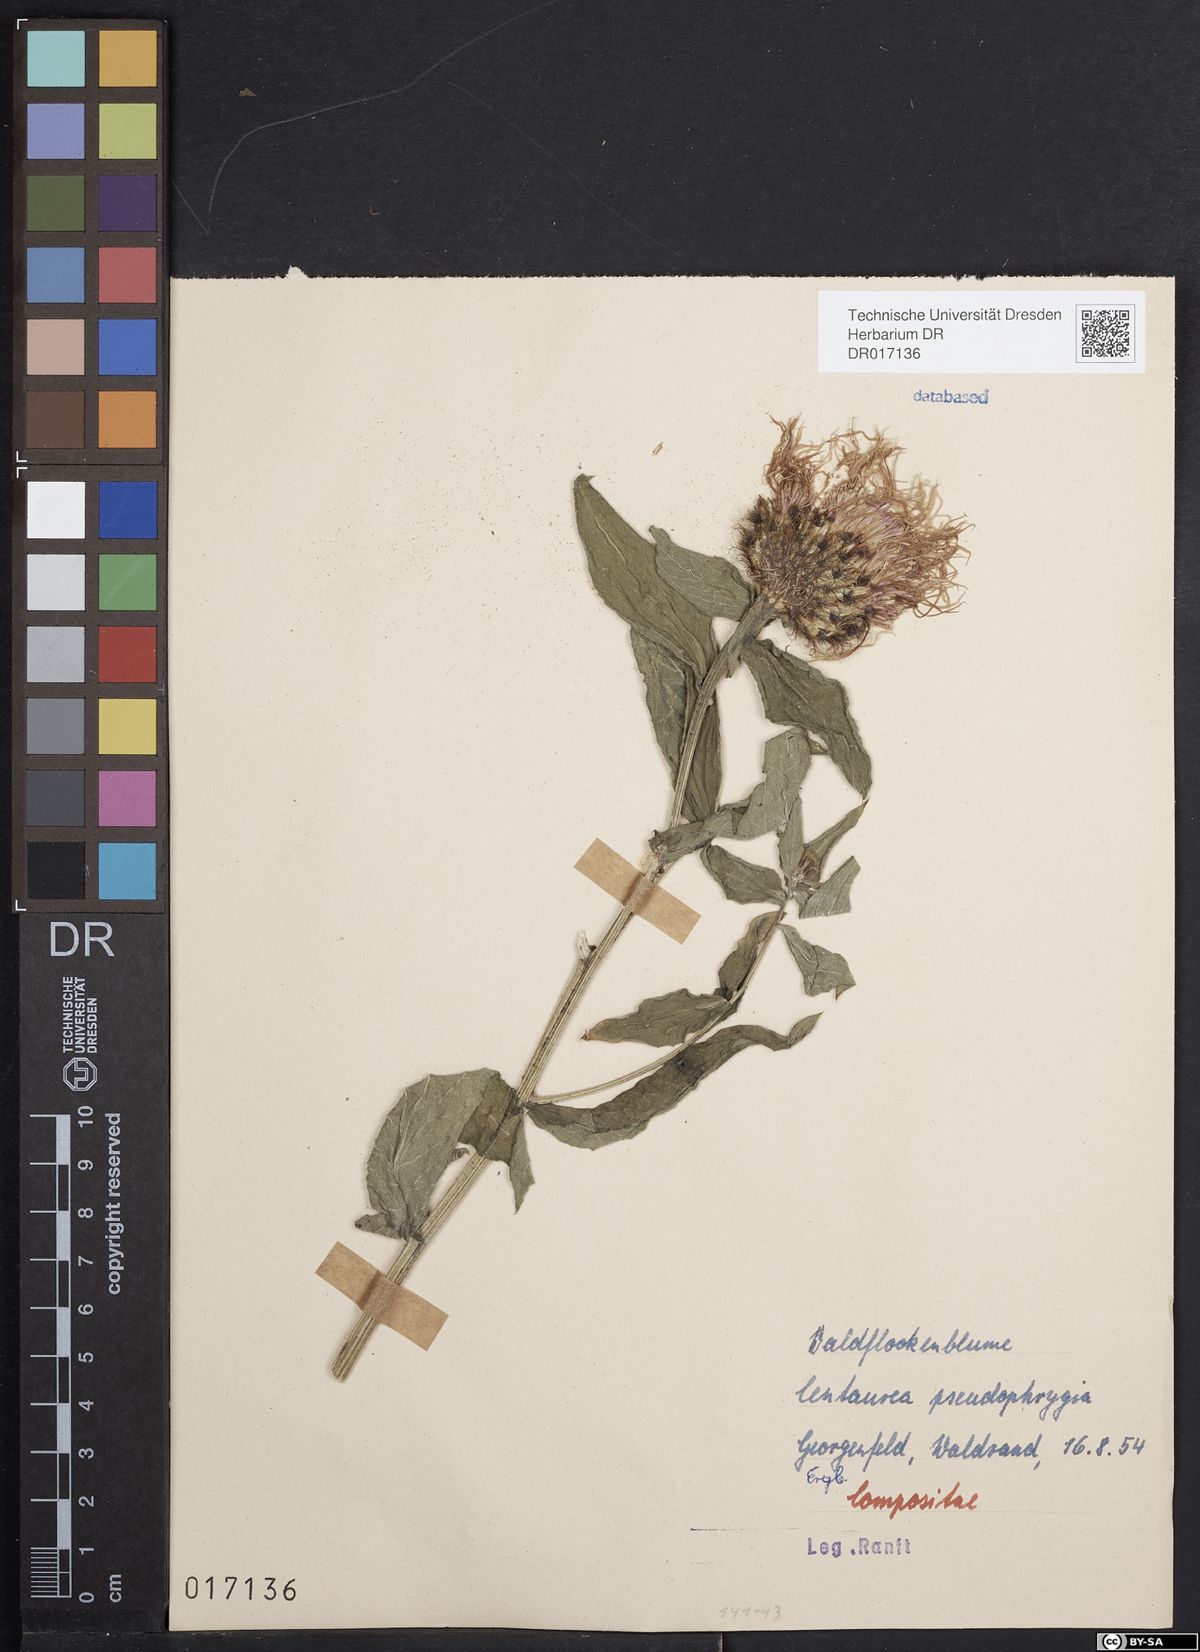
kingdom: Plantae
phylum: Tracheophyta
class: Magnoliopsida
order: Asterales
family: Asteraceae
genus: Centaurea
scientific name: Centaurea pseudophrygia
